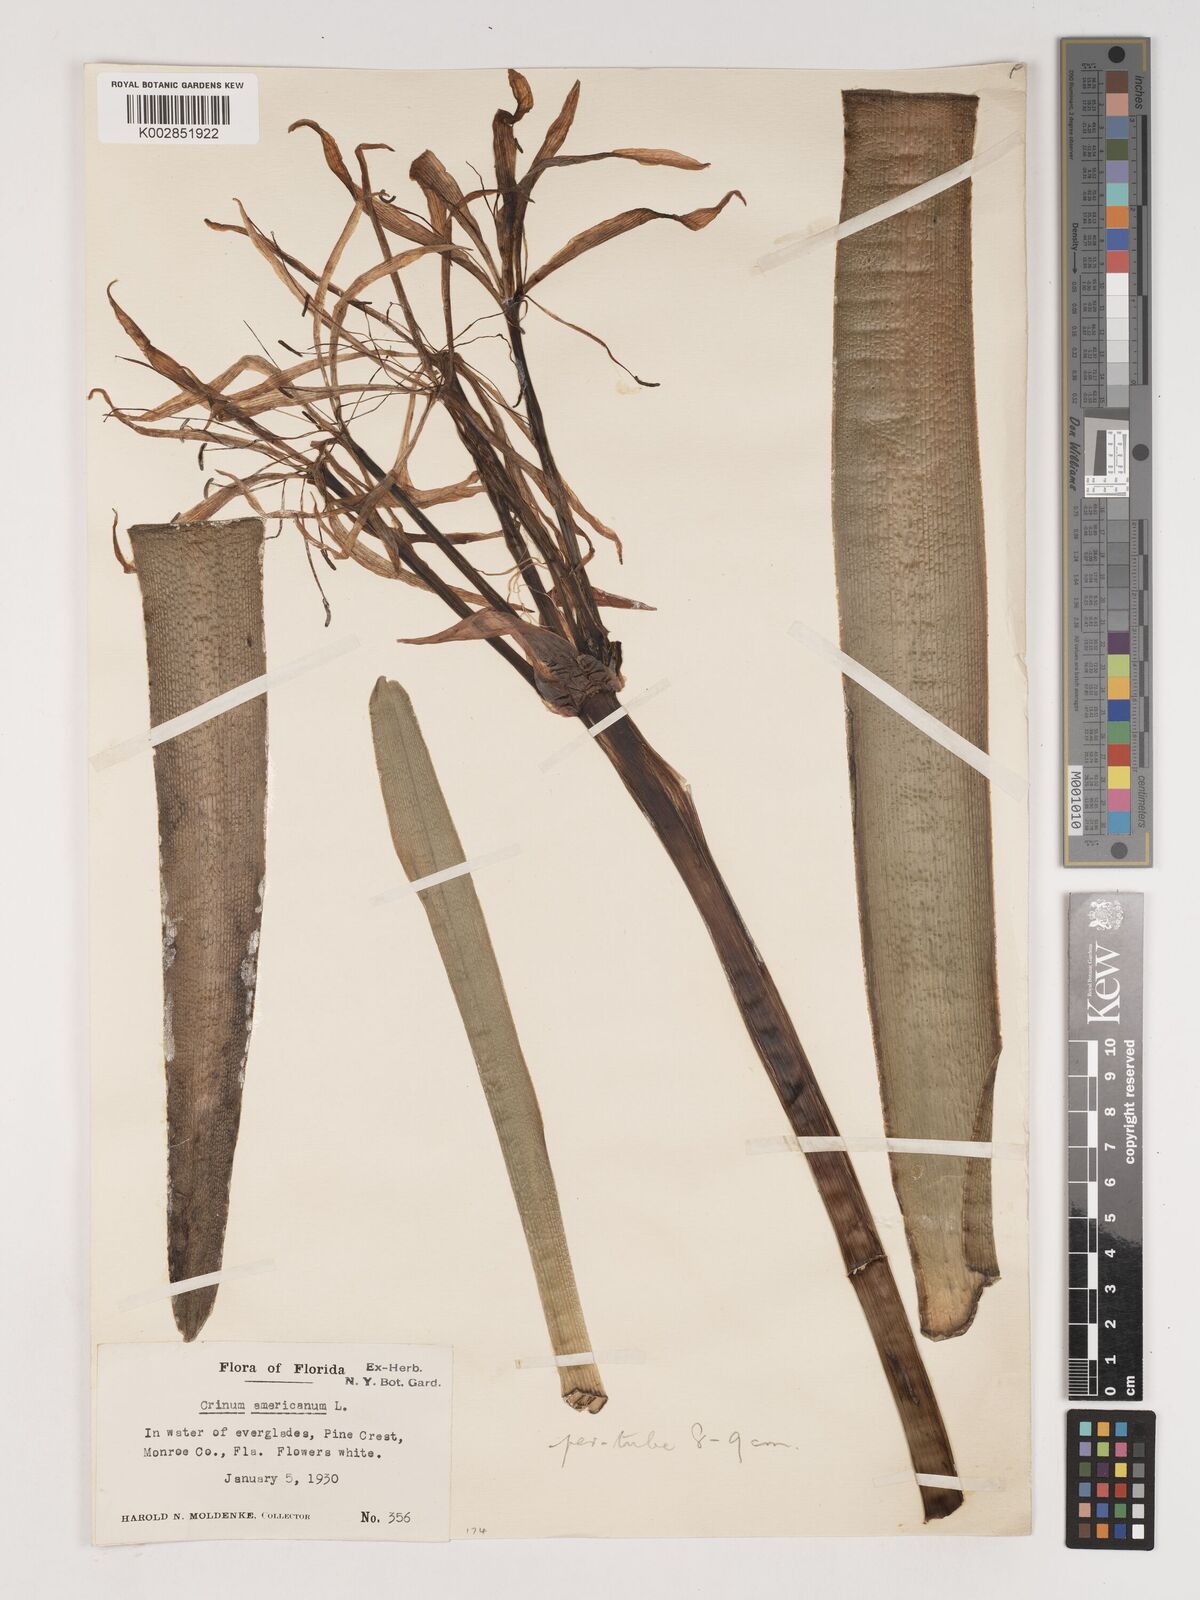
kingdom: Plantae
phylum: Tracheophyta
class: Liliopsida
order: Asparagales
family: Amaryllidaceae
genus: Crinum
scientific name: Crinum americanum
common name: Florida swamp-lily
